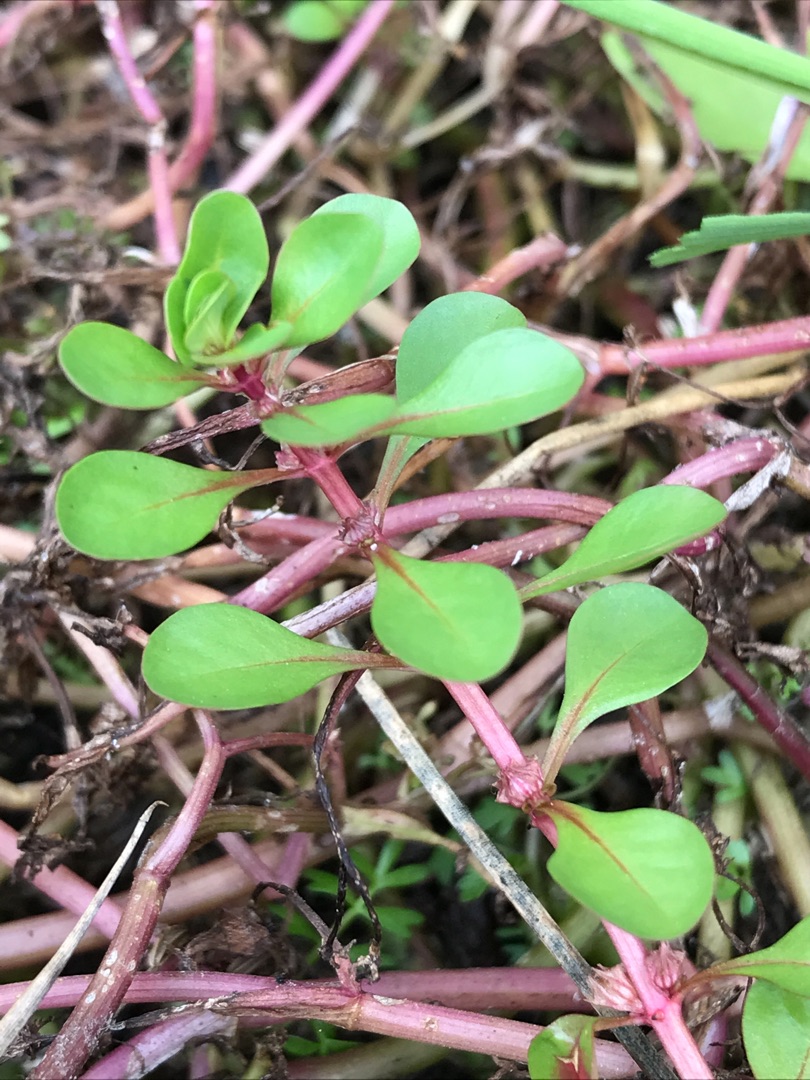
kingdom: Plantae
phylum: Tracheophyta
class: Magnoliopsida
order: Myrtales
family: Lythraceae
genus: Lythrum
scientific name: Lythrum portula
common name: Vandportulak
